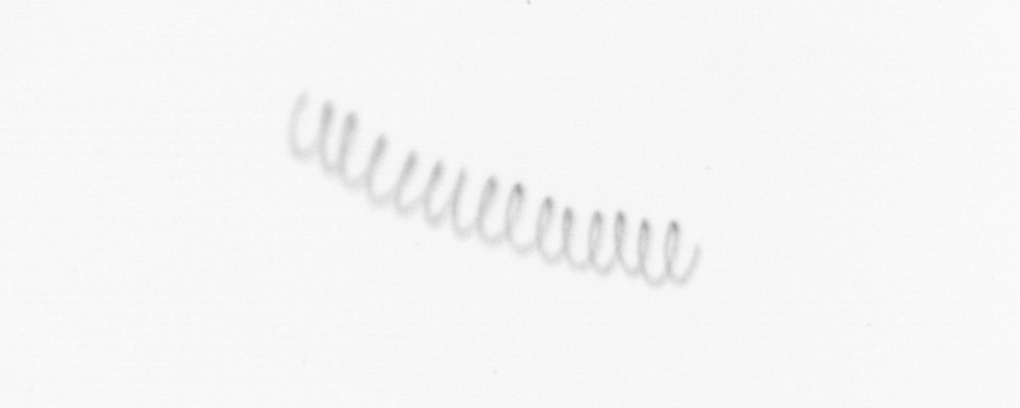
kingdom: Chromista
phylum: Ochrophyta
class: Bacillariophyceae
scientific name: Bacillariophyceae
